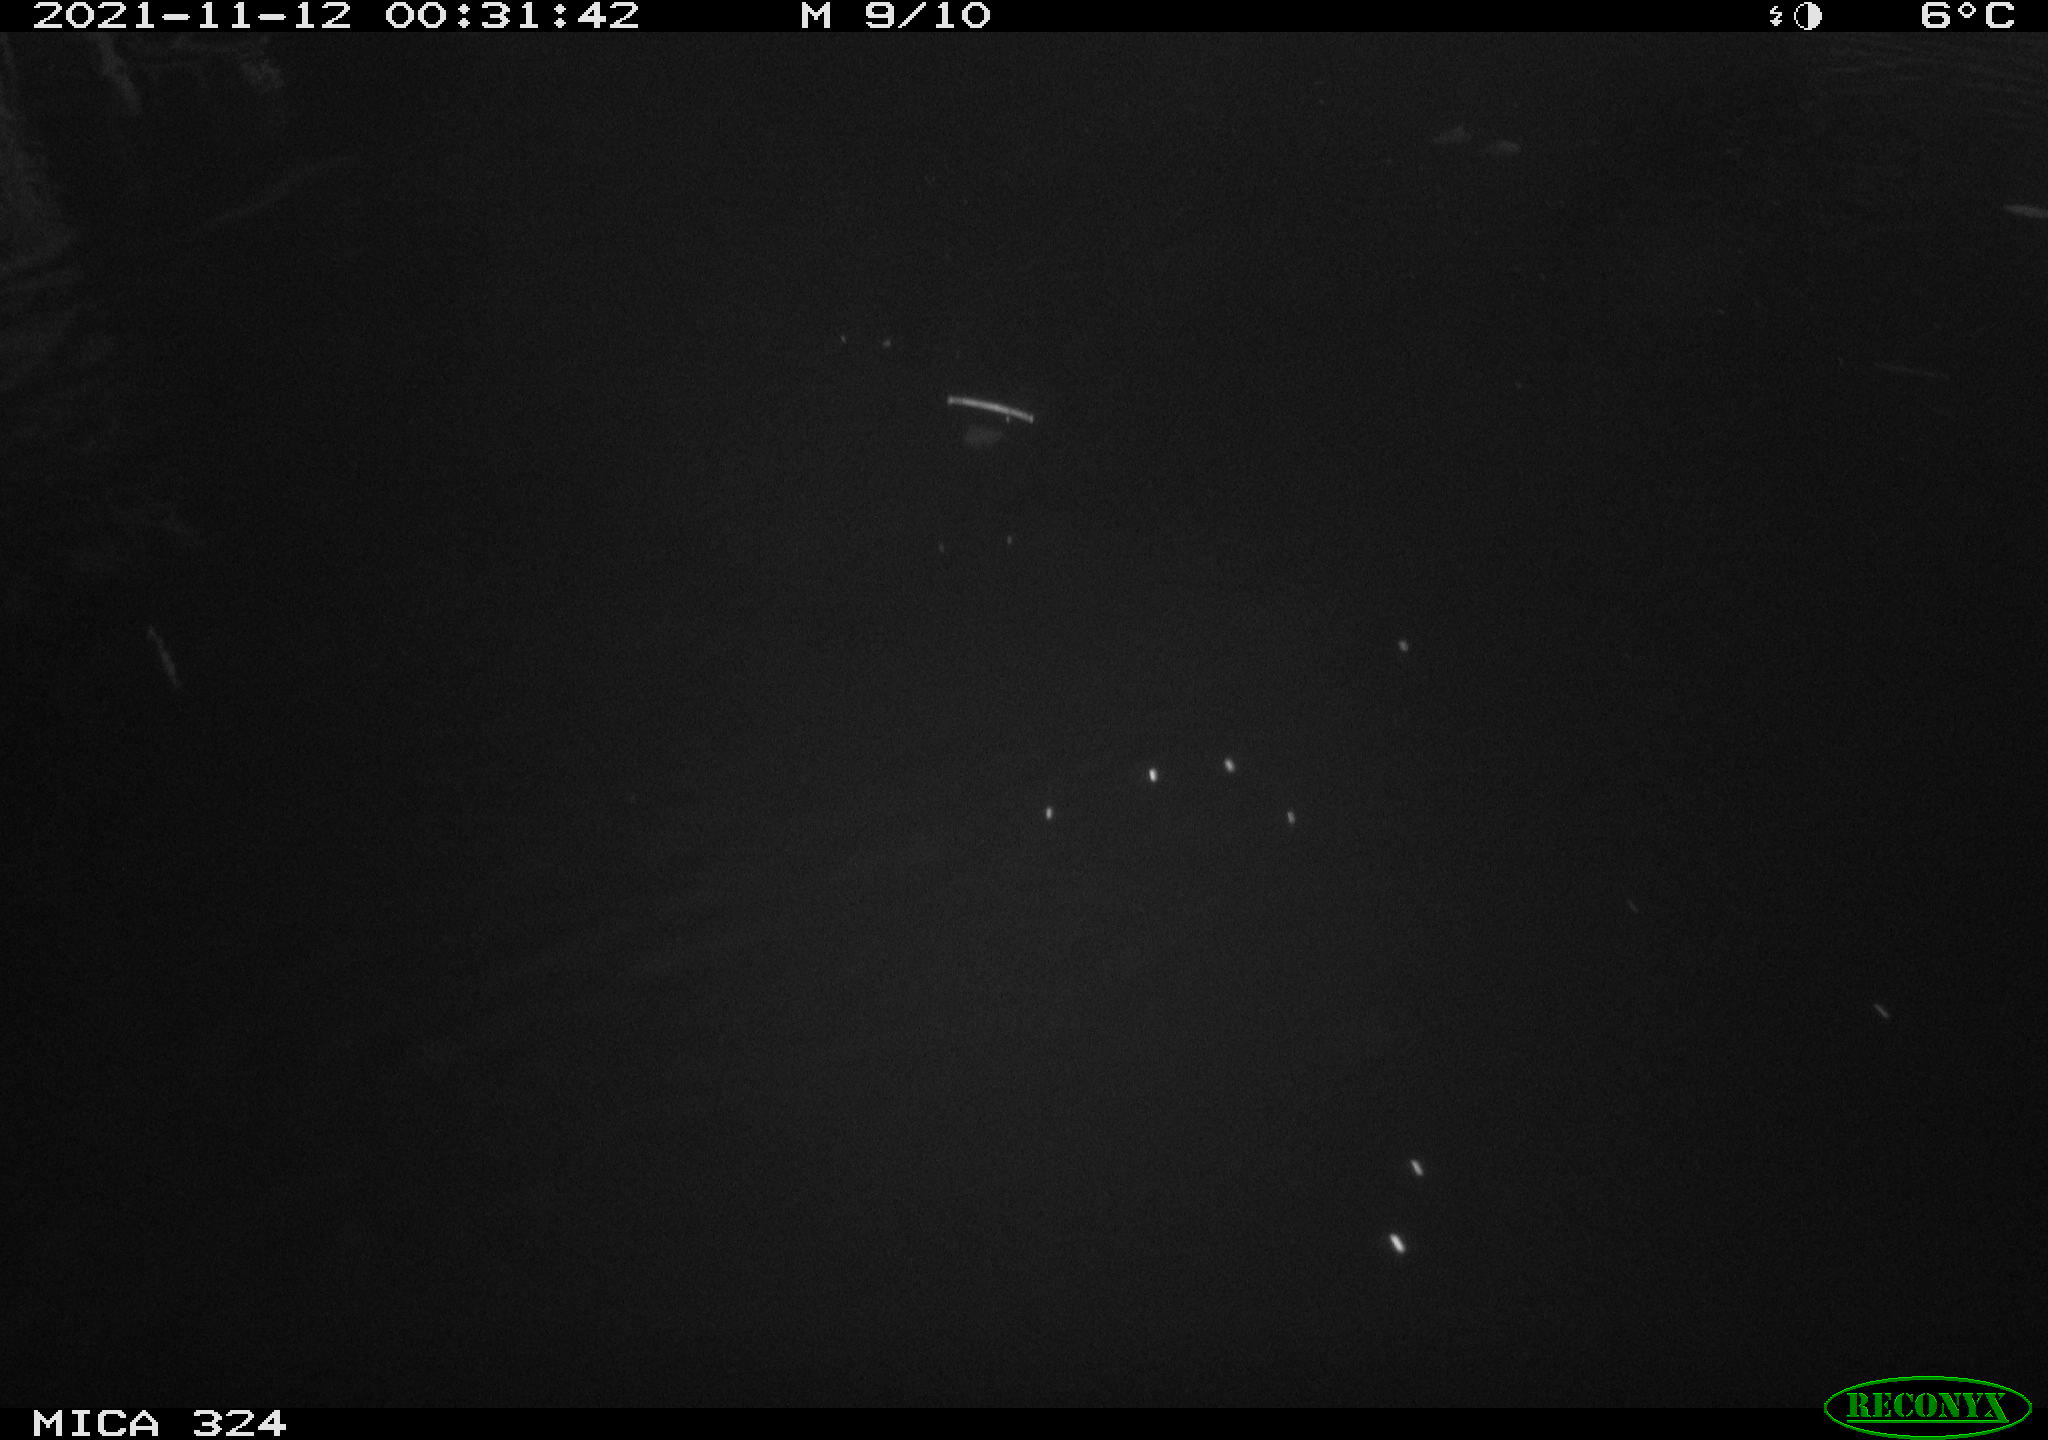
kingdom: Animalia
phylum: Chordata
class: Mammalia
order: Rodentia
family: Cricetidae
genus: Ondatra
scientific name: Ondatra zibethicus
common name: Muskrat
